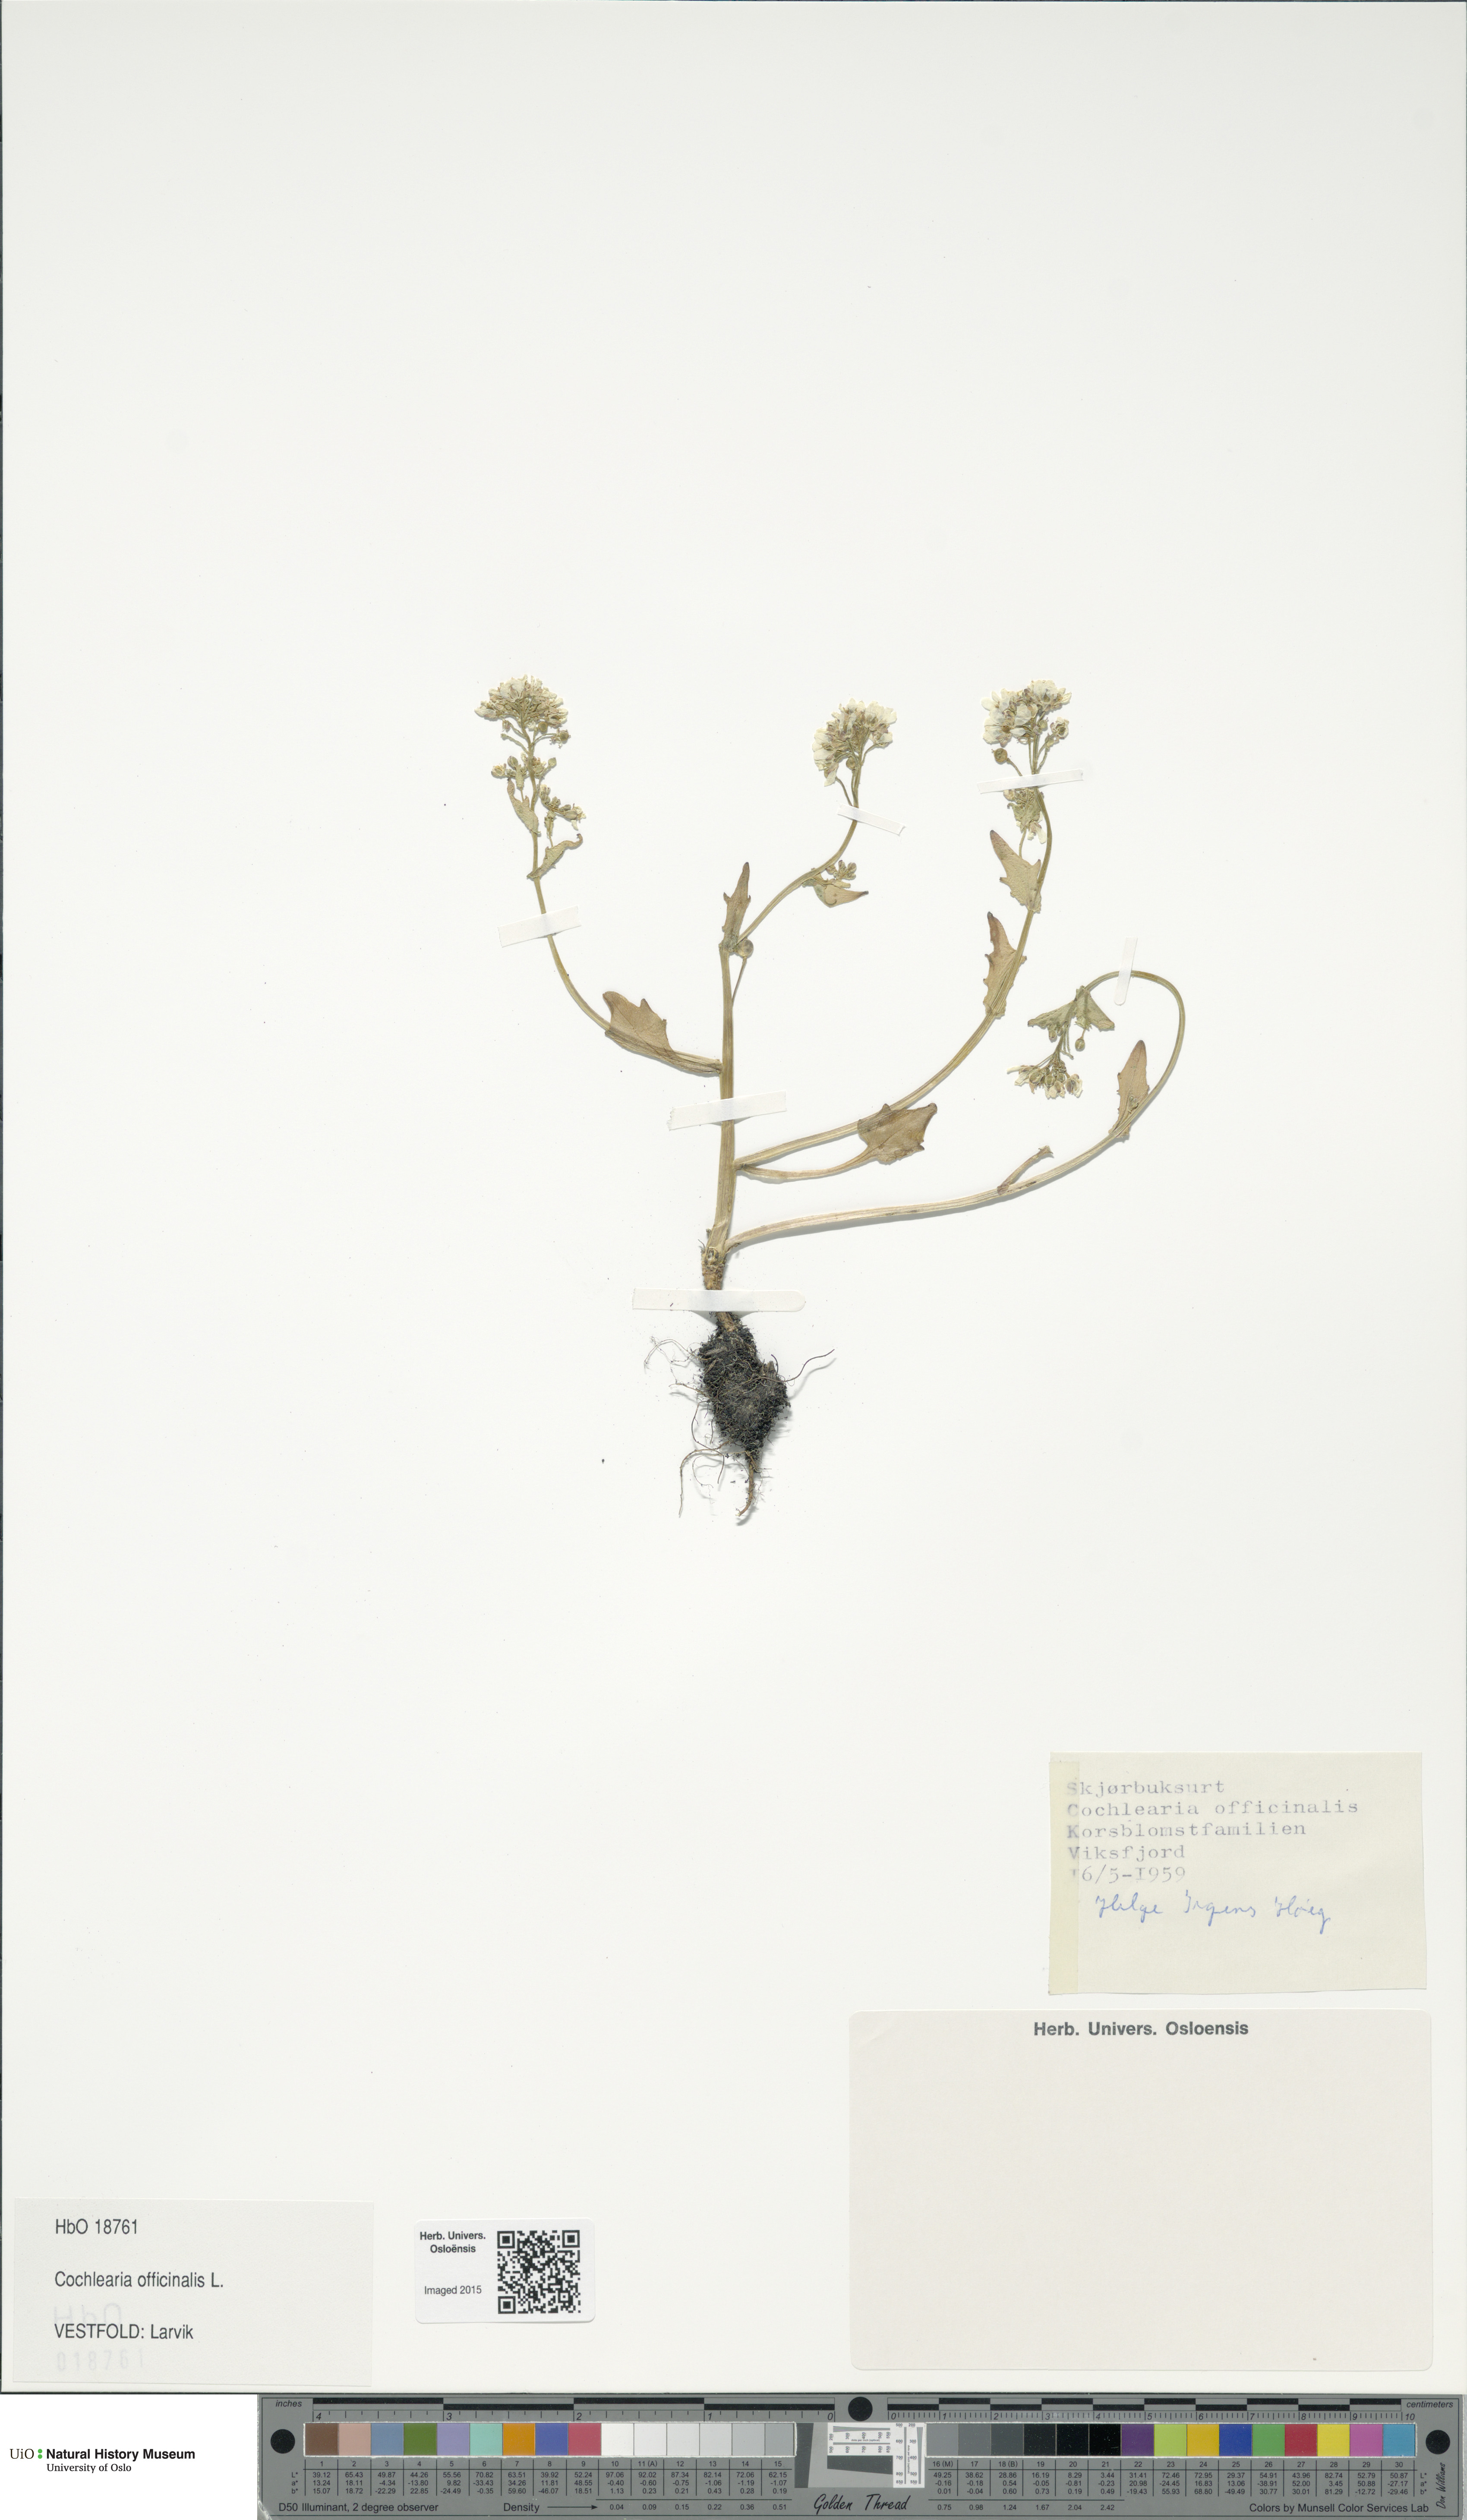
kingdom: Plantae
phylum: Tracheophyta
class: Magnoliopsida
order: Brassicales
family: Brassicaceae
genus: Cochlearia
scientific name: Cochlearia officinalis
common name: Scurvy-grass
